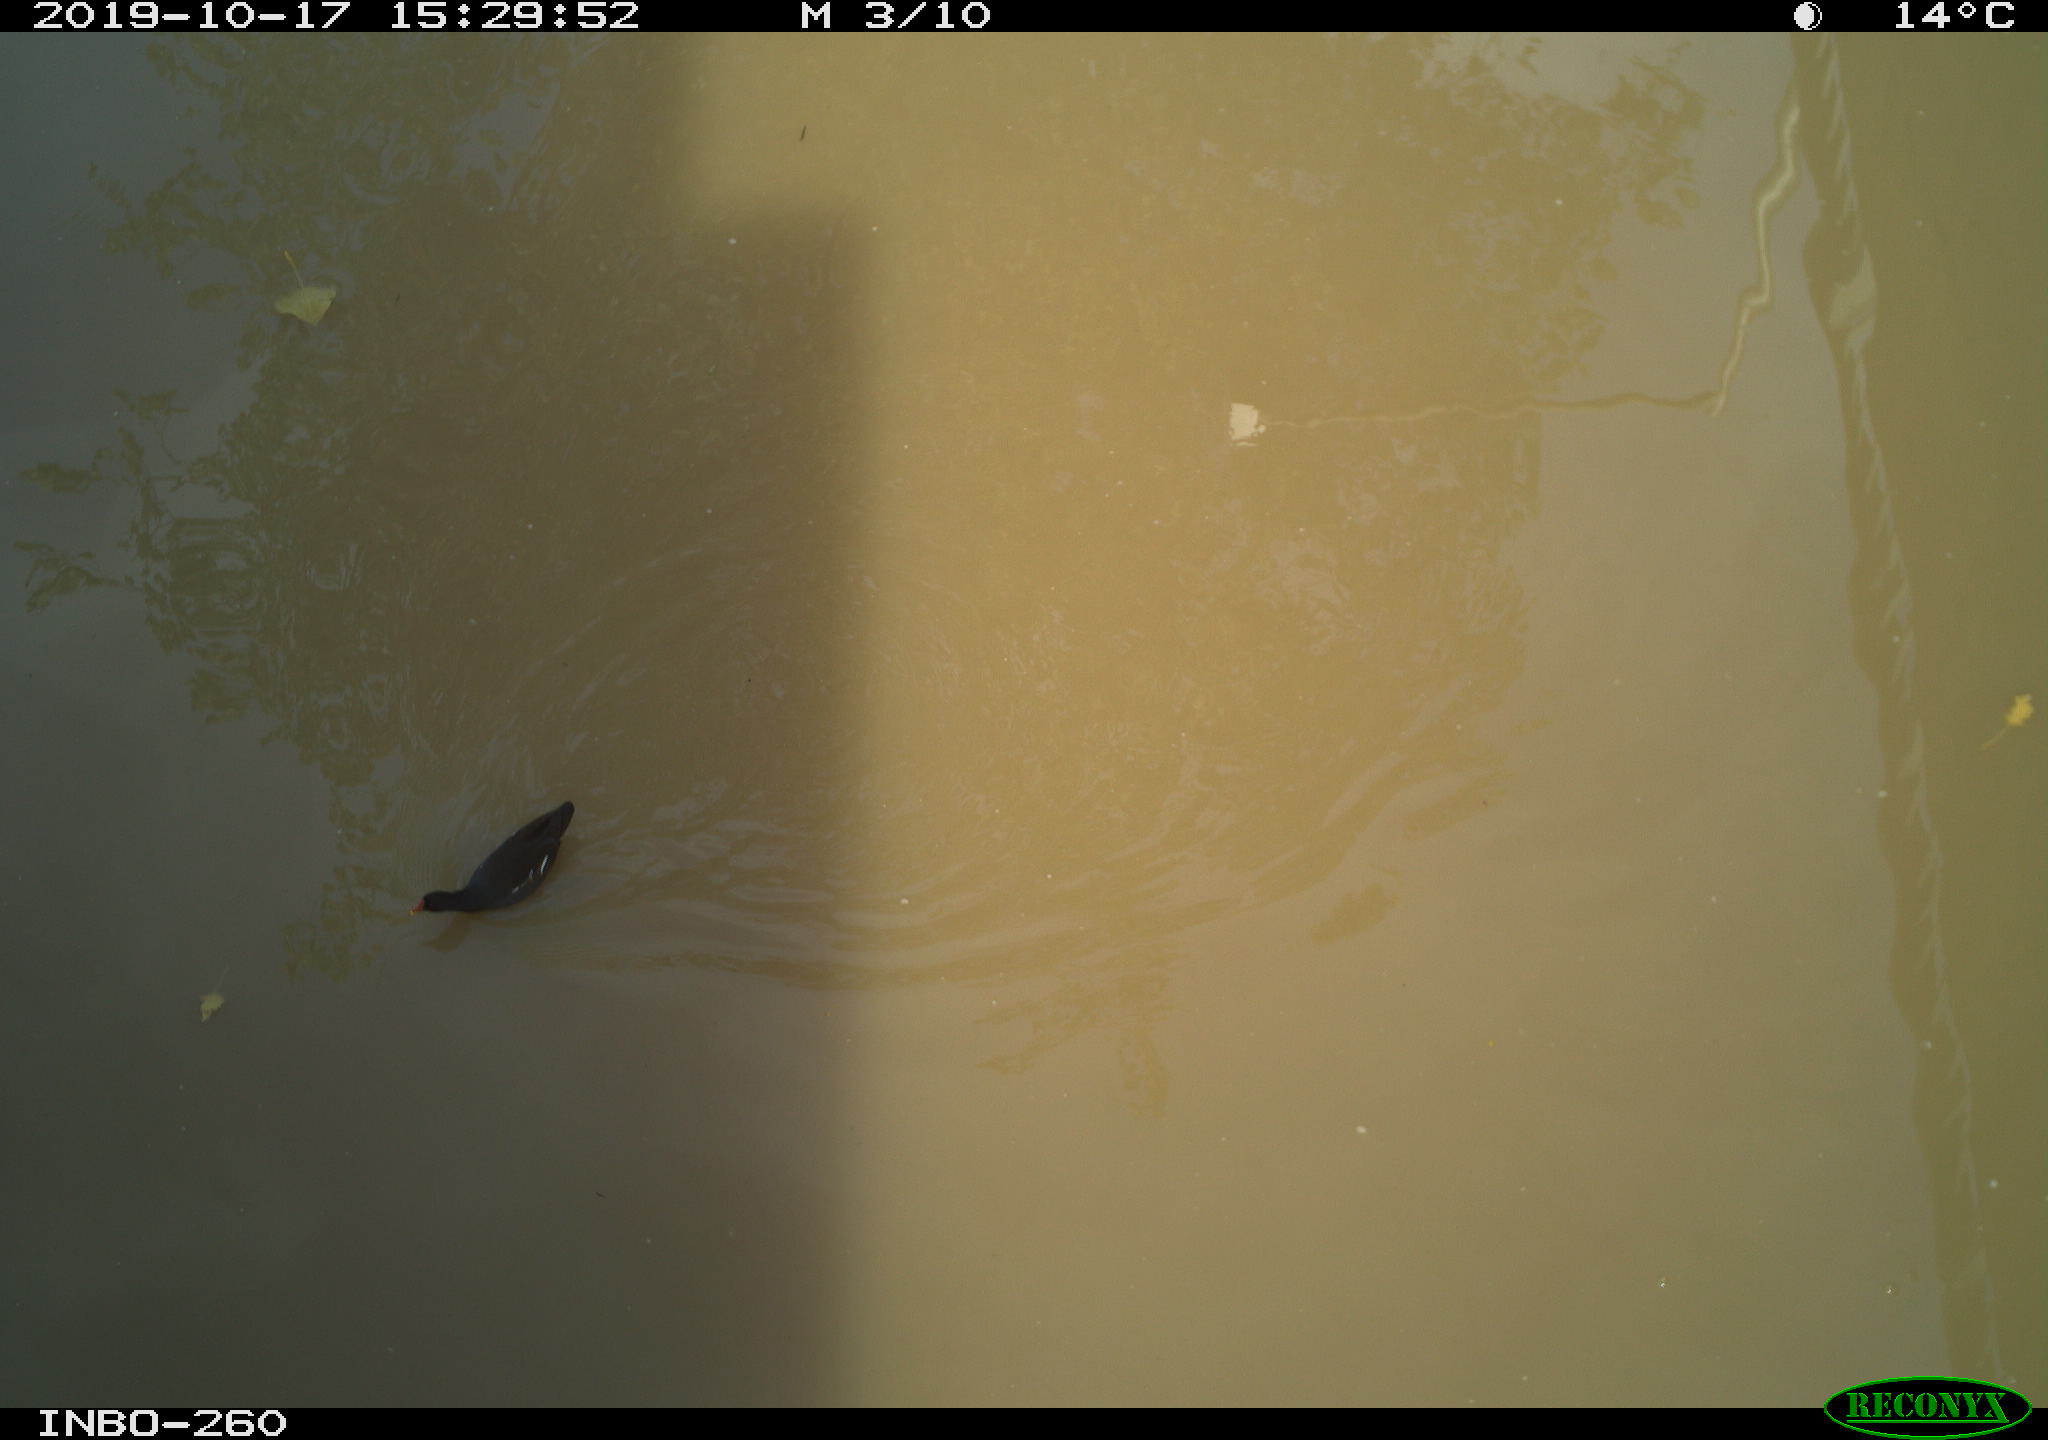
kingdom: Animalia
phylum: Chordata
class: Aves
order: Gruiformes
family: Rallidae
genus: Gallinula
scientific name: Gallinula chloropus
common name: Common moorhen
